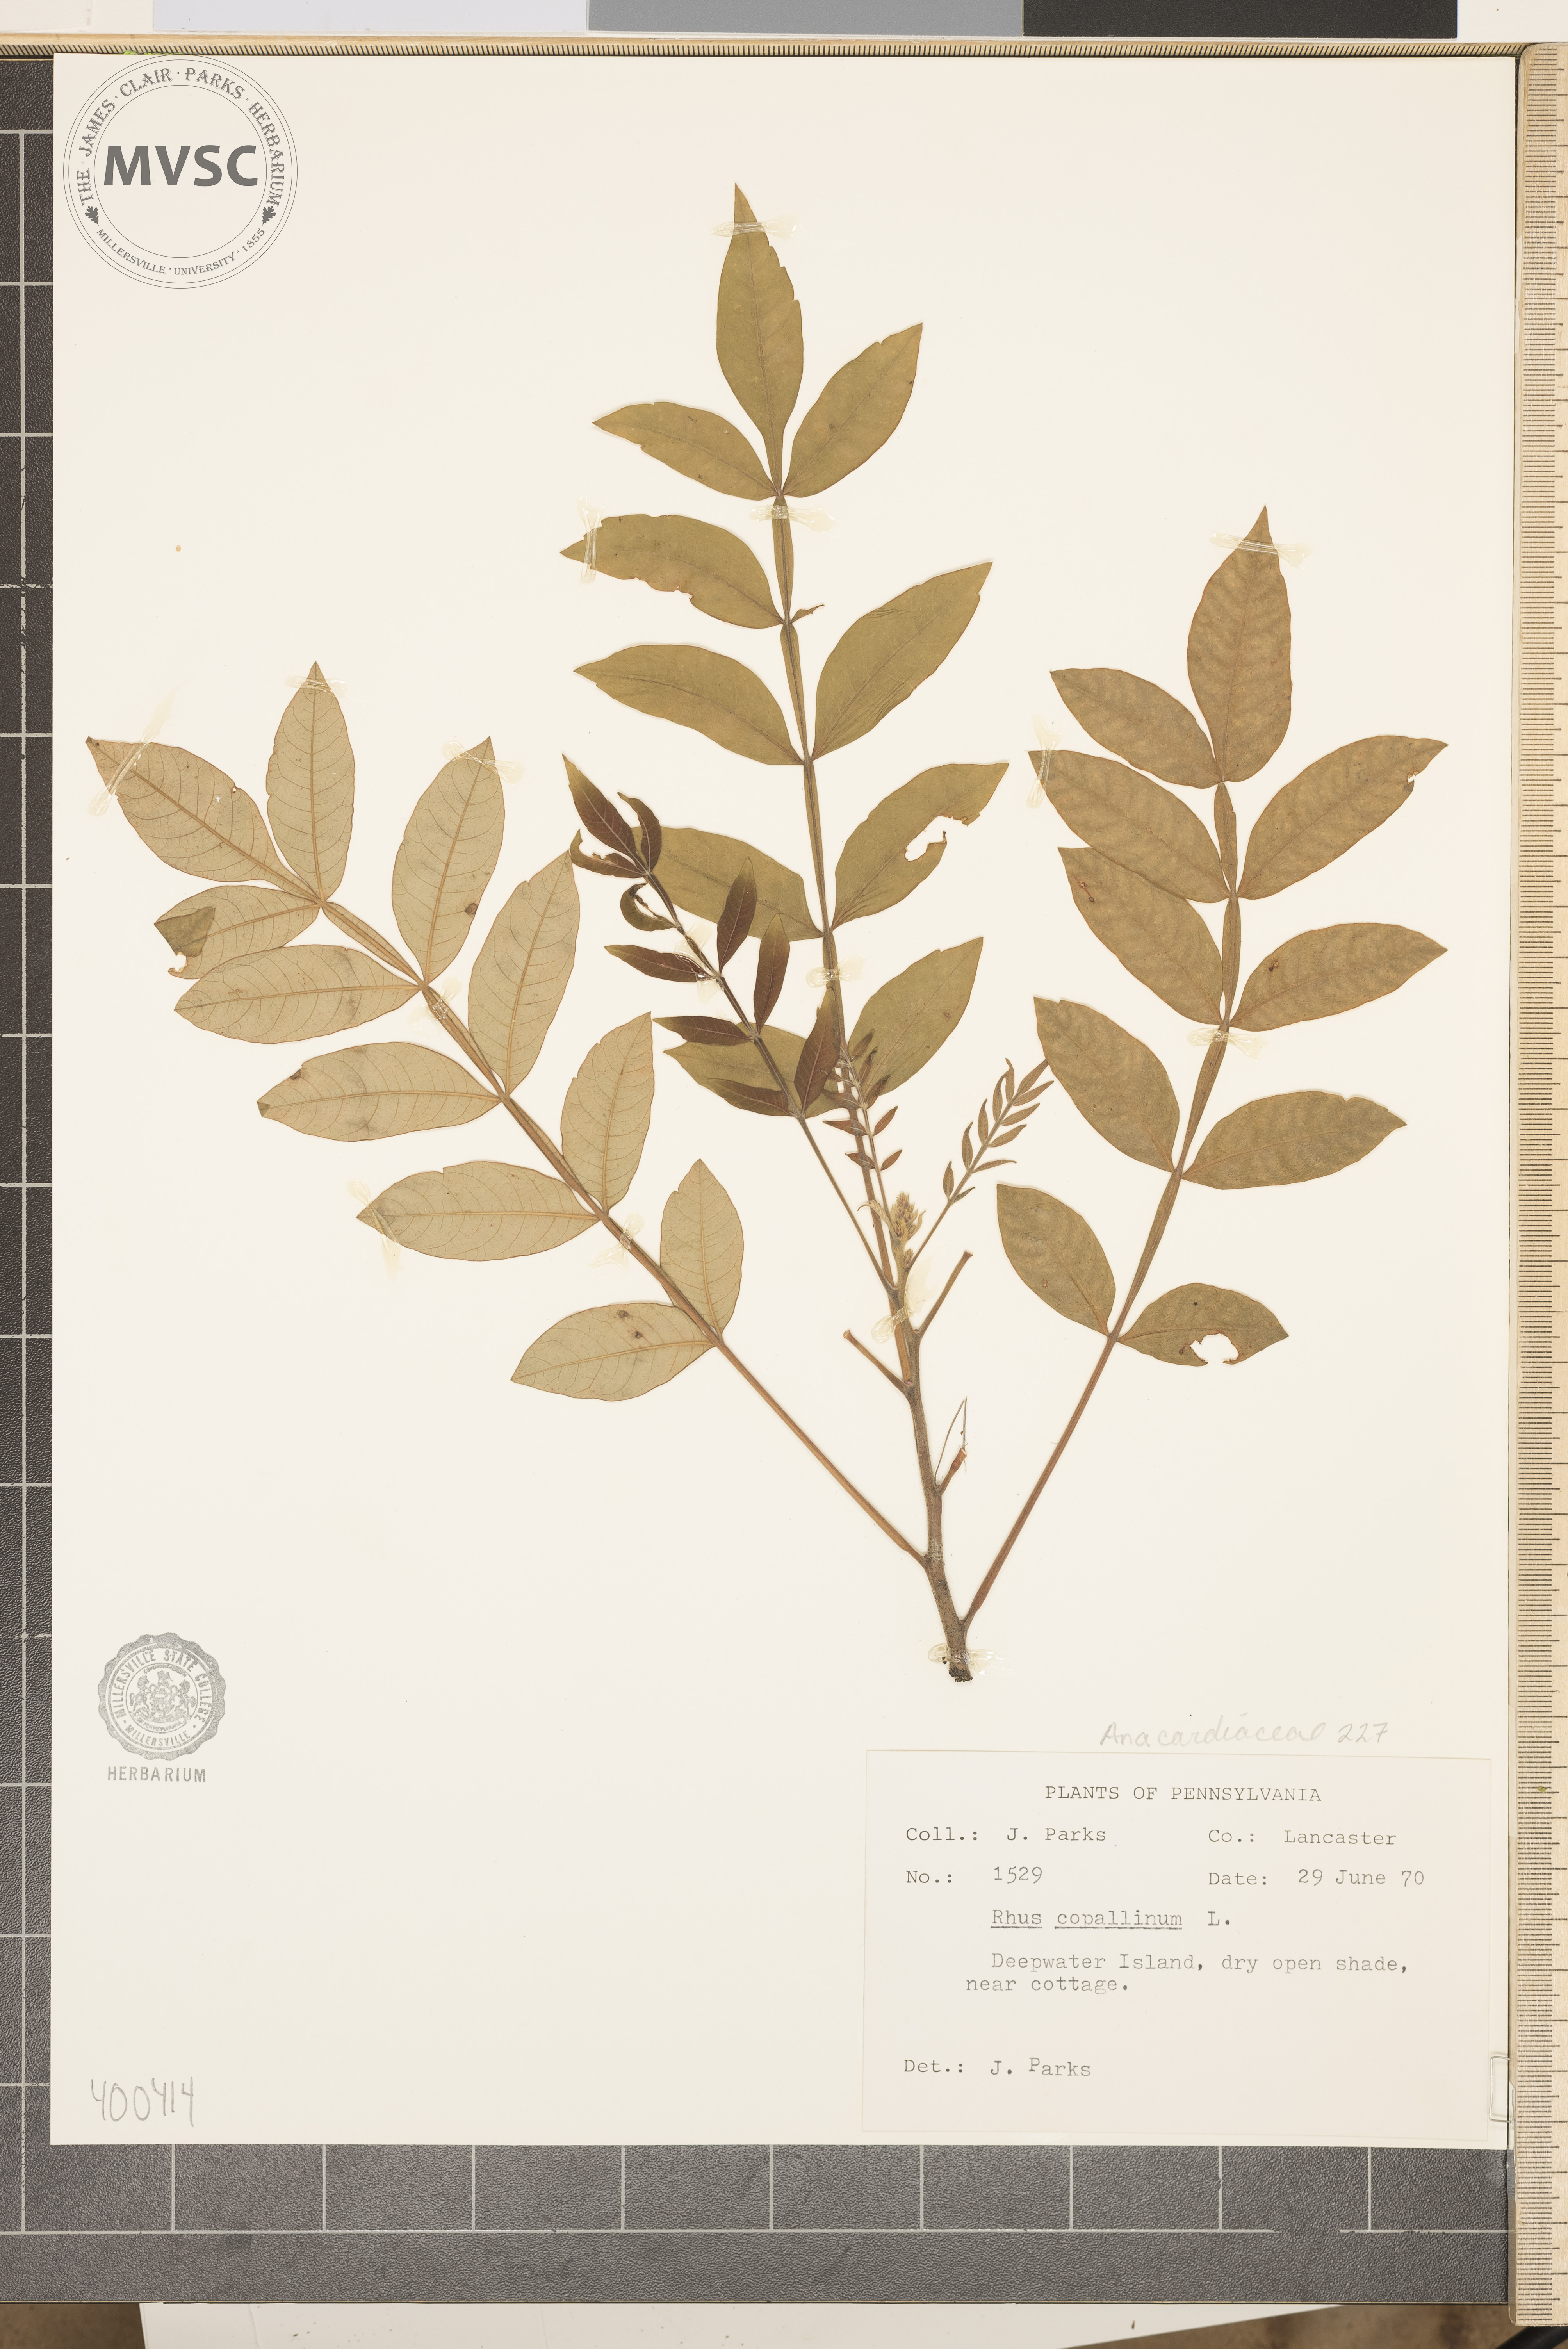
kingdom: Plantae
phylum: Tracheophyta
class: Magnoliopsida
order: Sapindales
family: Anacardiaceae
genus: Rhus
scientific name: Rhus copallina
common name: sumac
